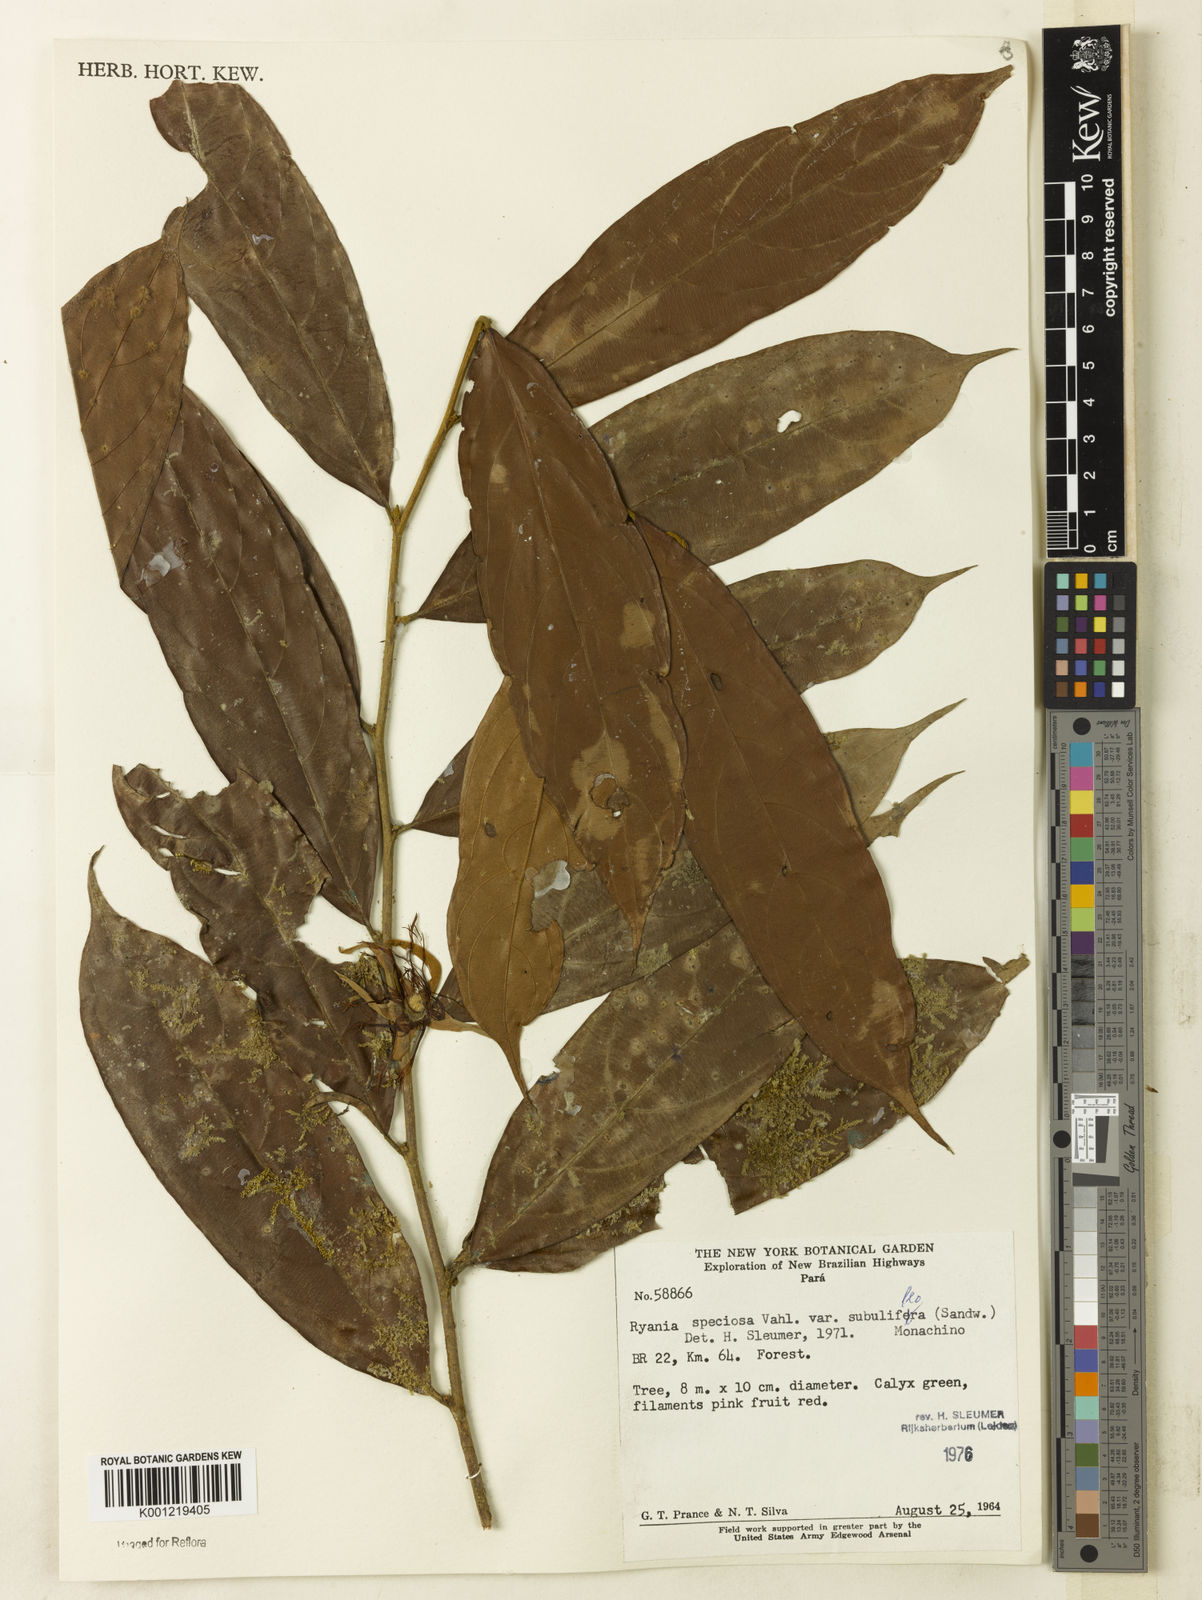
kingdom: Plantae
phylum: Tracheophyta
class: Magnoliopsida
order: Malpighiales
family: Salicaceae
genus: Ryania
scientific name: Ryania speciosa
